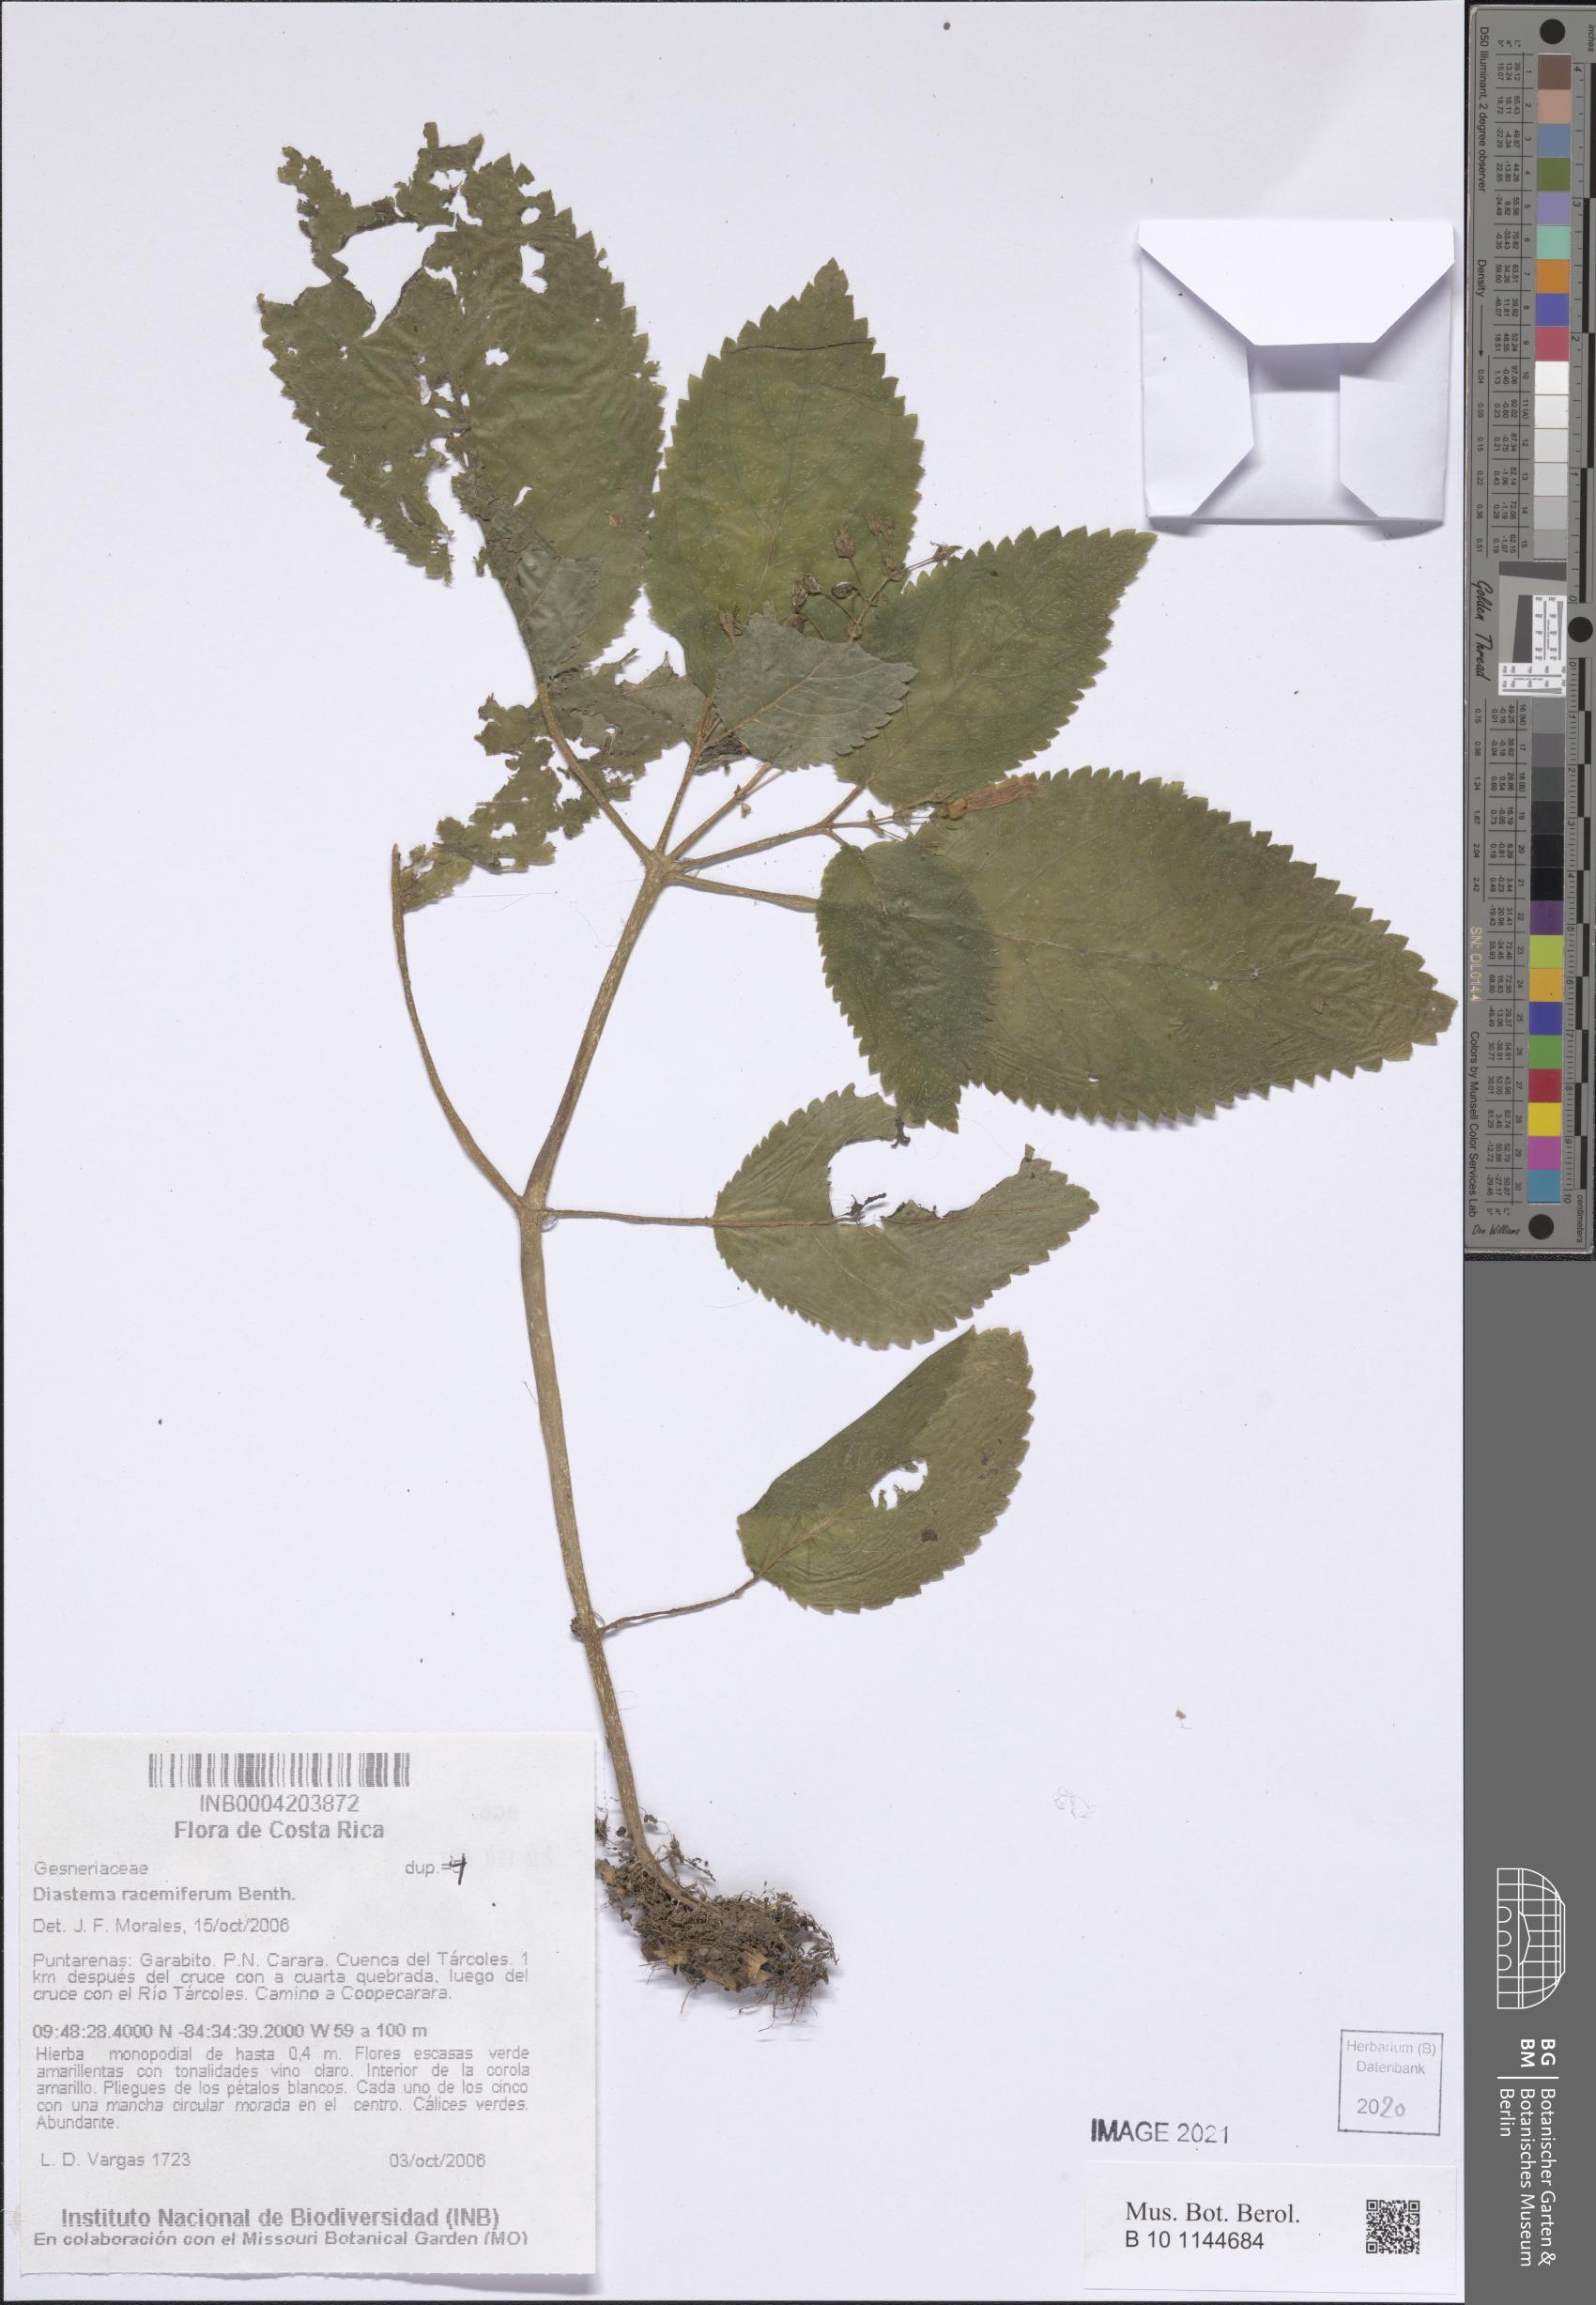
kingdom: Plantae
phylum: Tracheophyta
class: Magnoliopsida
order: Lamiales
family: Gesneriaceae
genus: Diastema
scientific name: Diastema racemiferum
